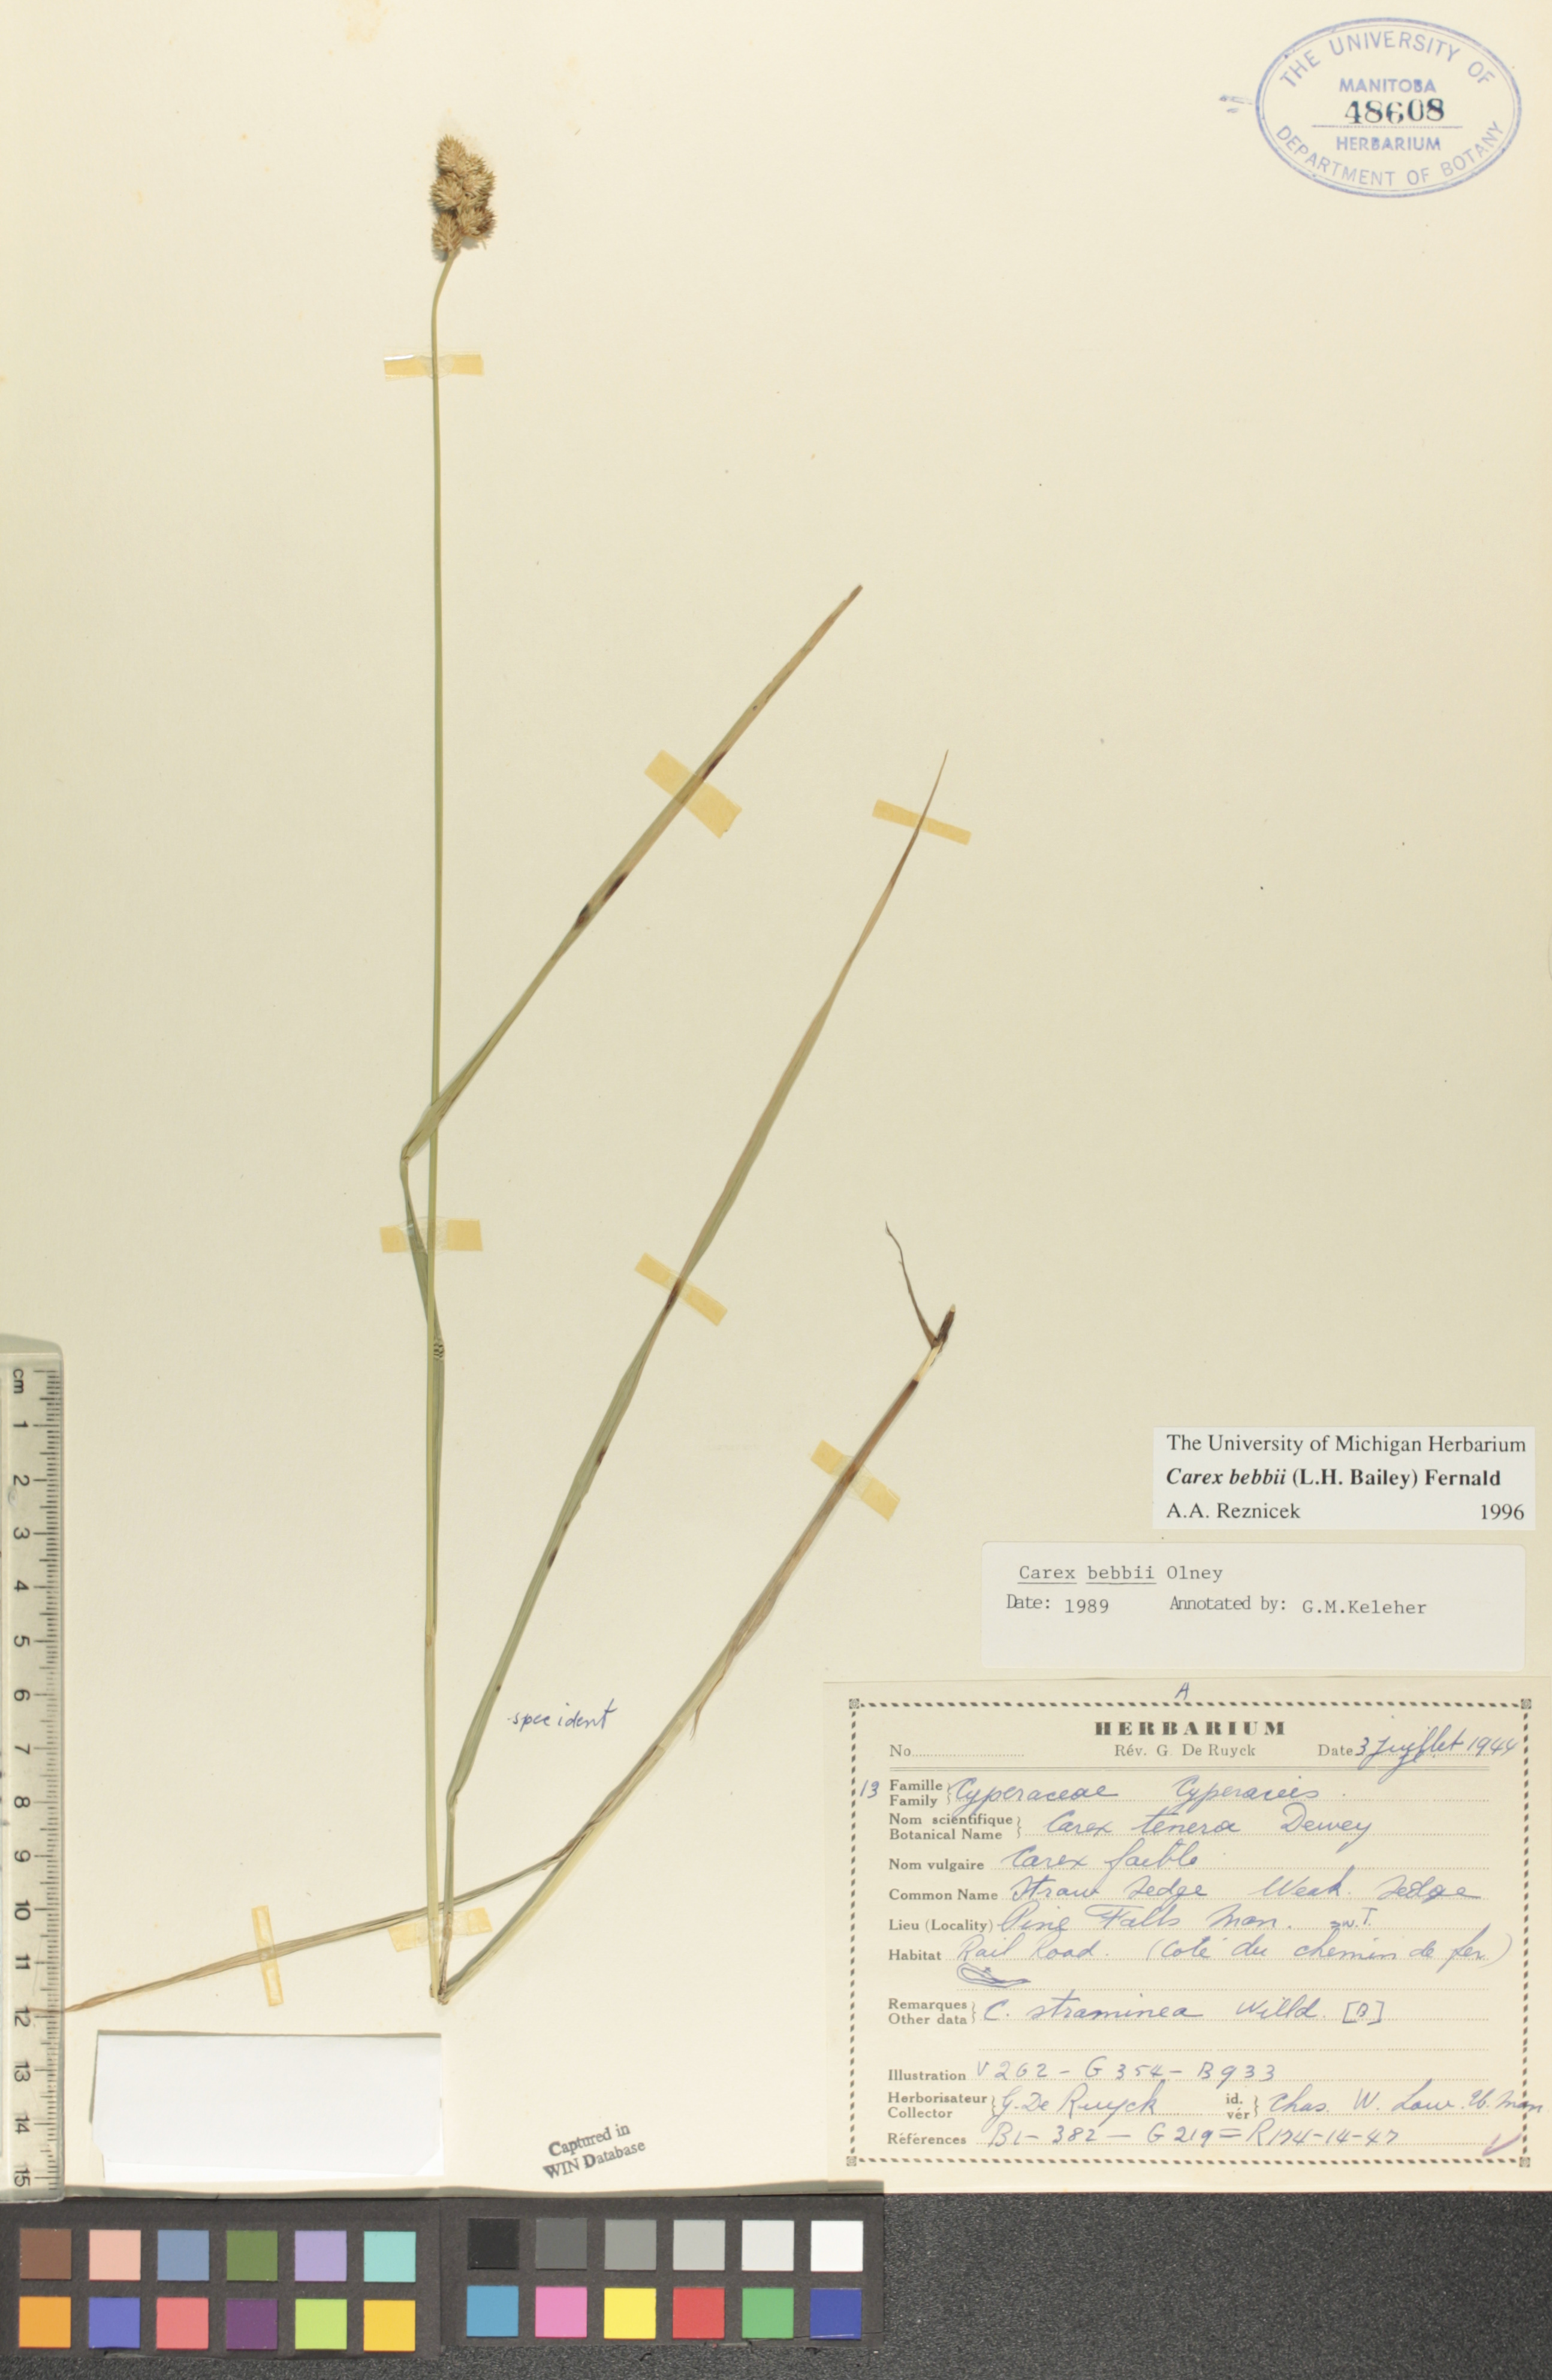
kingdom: Plantae
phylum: Tracheophyta
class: Liliopsida
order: Poales
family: Cyperaceae
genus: Carex
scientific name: Carex bebbii
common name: Bebb's sedge
